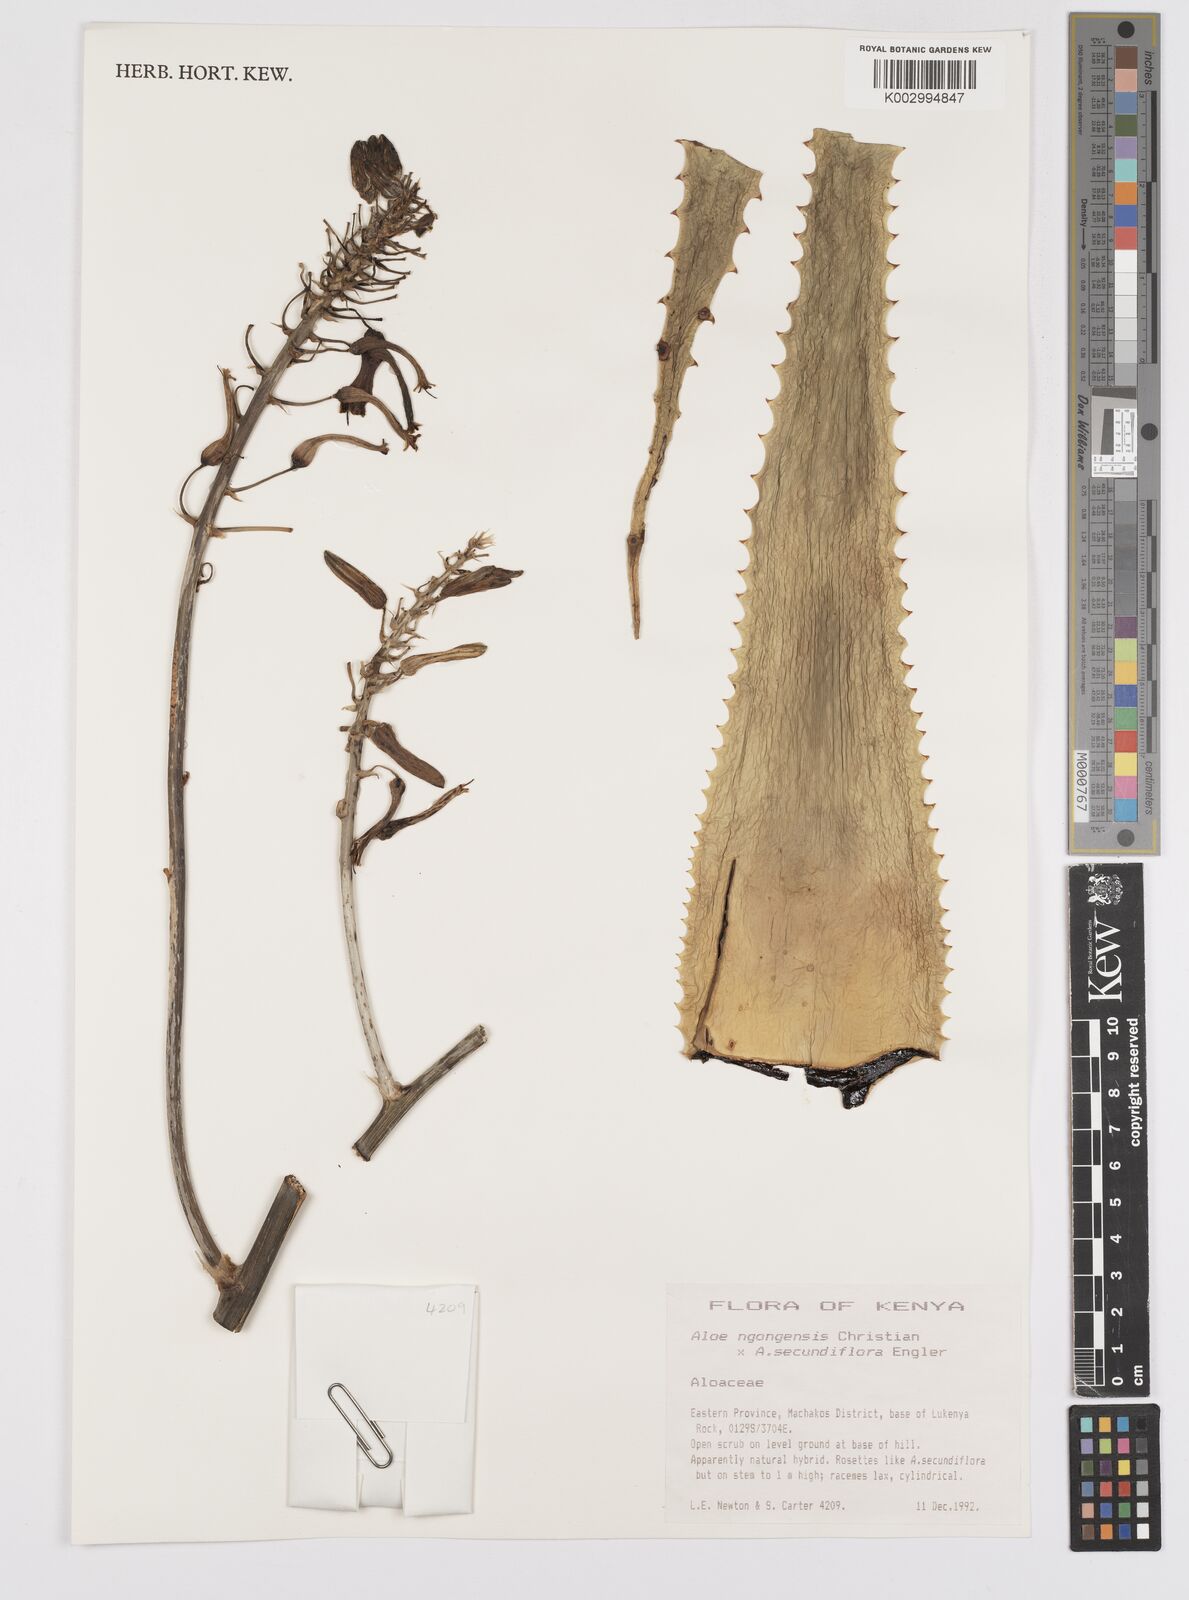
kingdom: Plantae
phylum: Tracheophyta
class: Liliopsida
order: Asparagales
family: Asphodelaceae
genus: Aloe
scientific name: Aloe ngongensis
